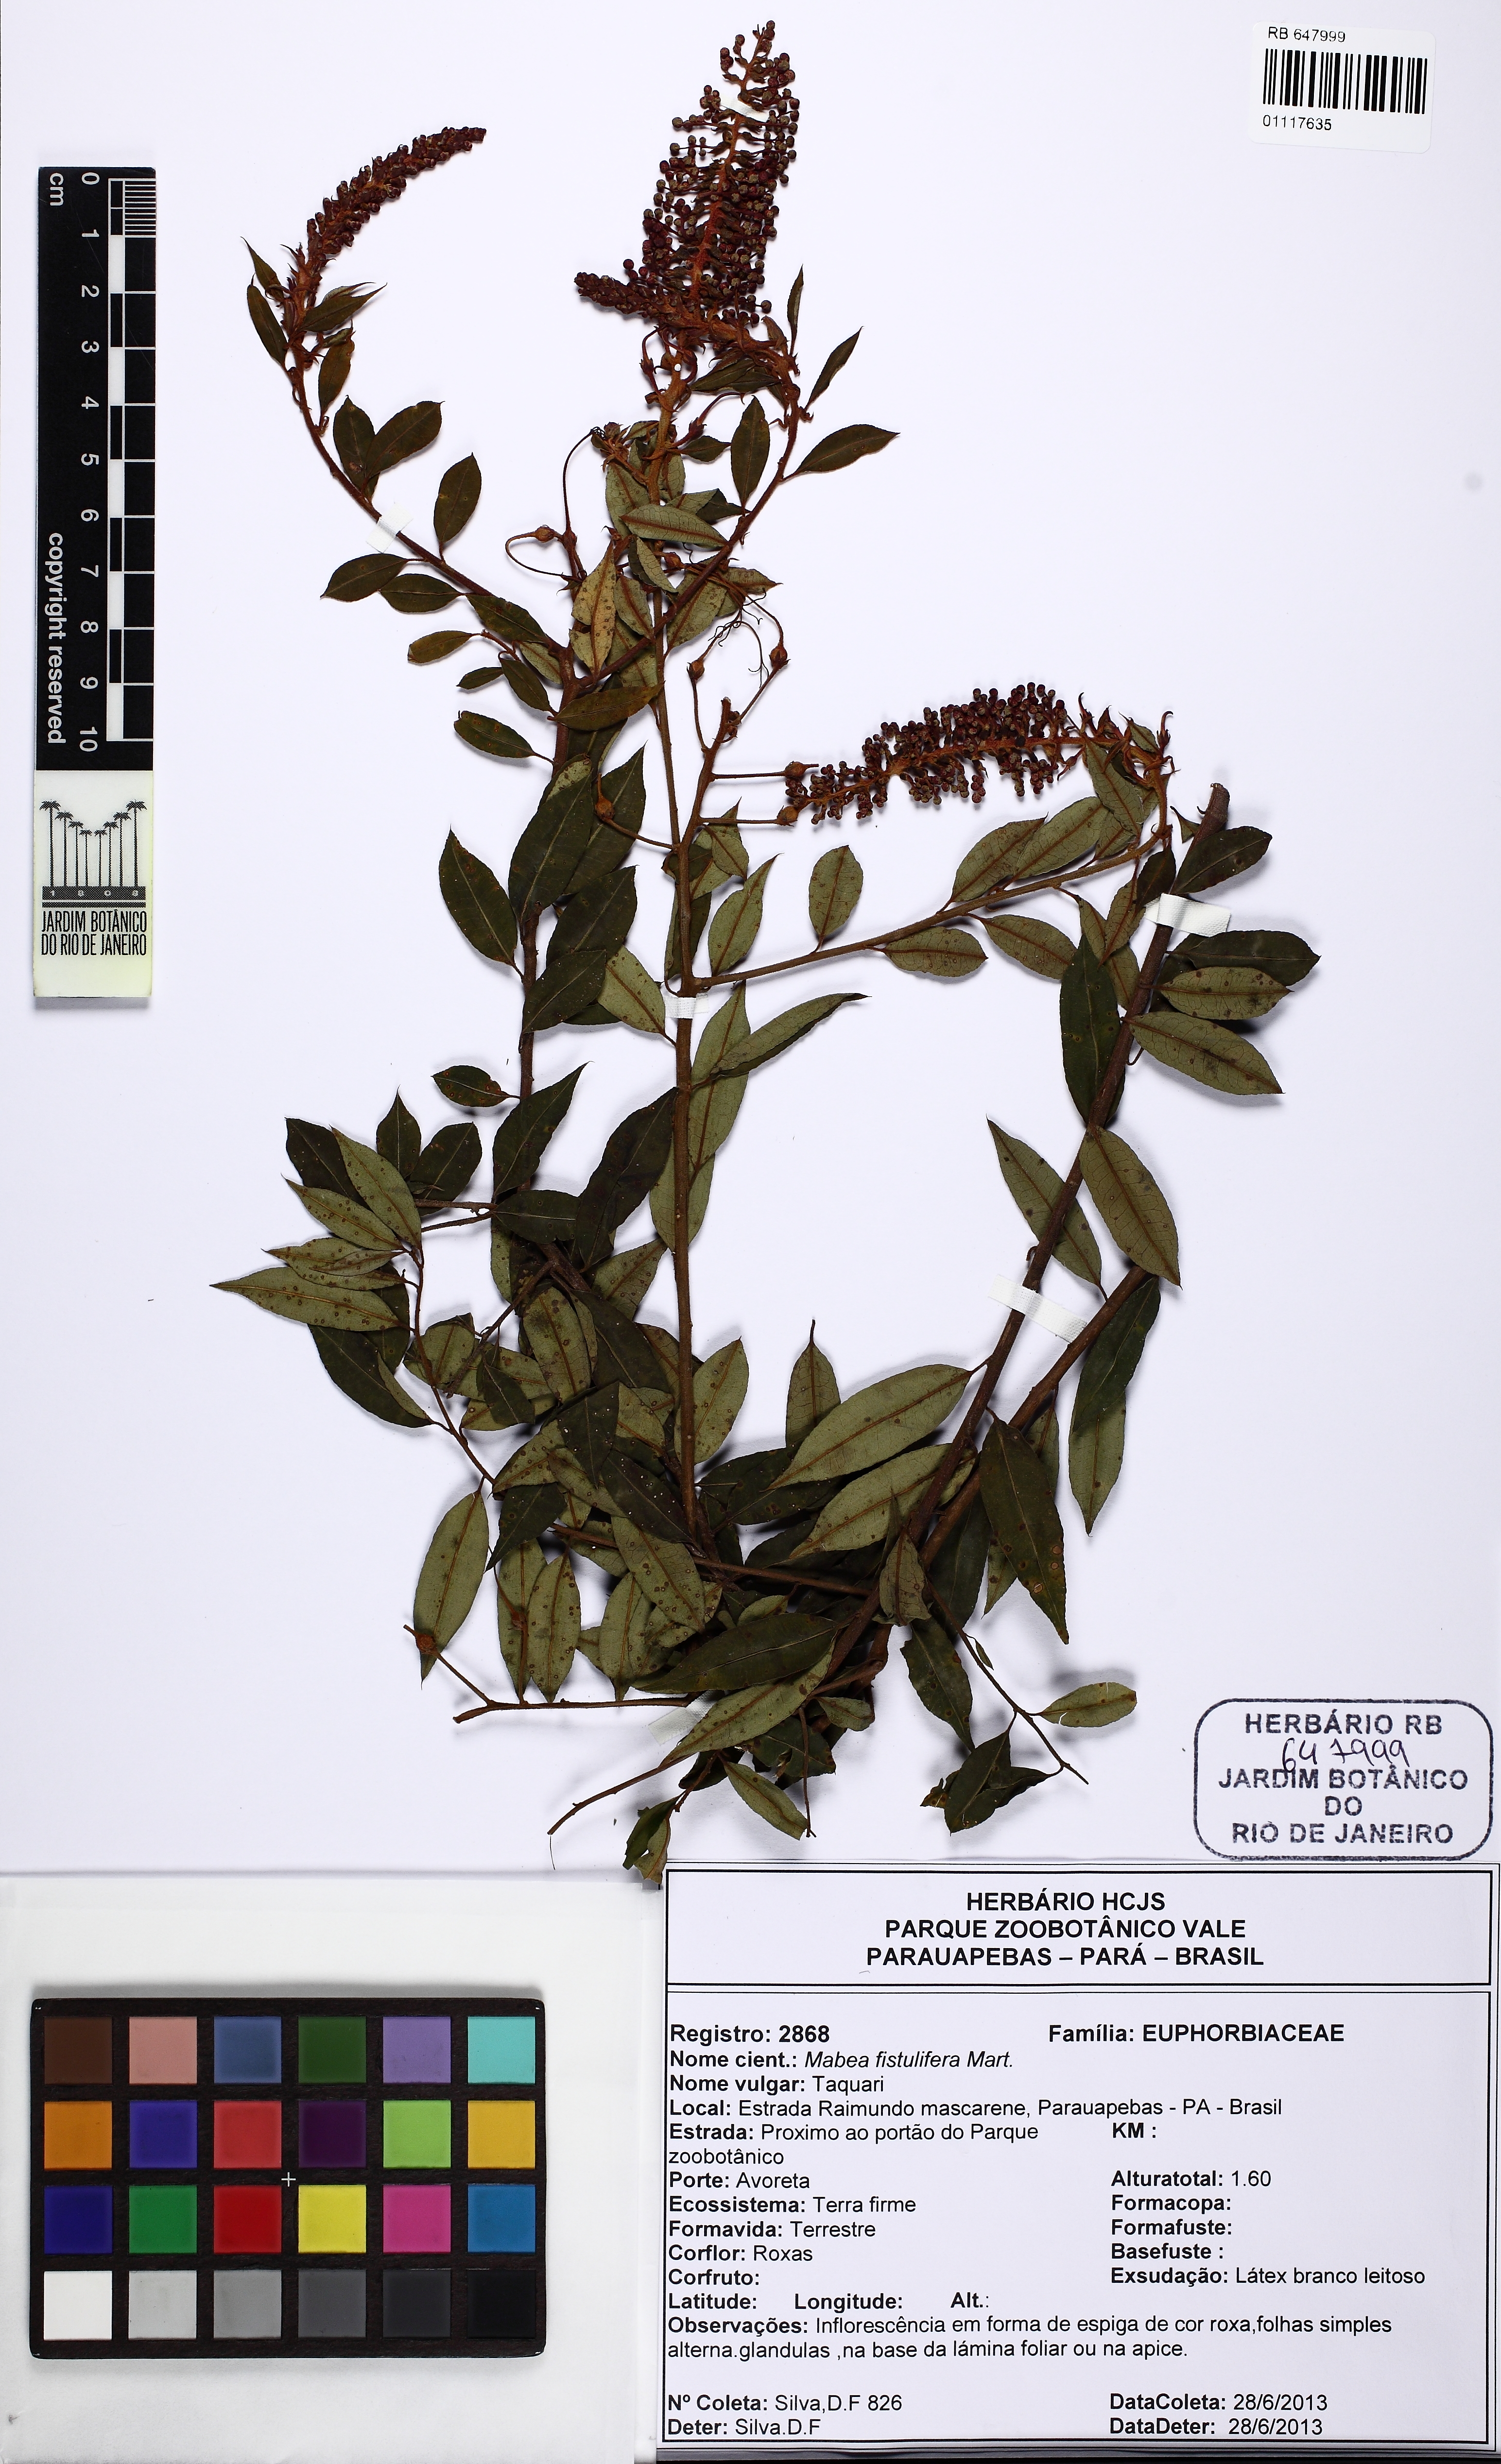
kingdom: Plantae
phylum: Tracheophyta
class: Magnoliopsida
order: Malpighiales
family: Euphorbiaceae
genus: Mabea
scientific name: Mabea fistulifera
